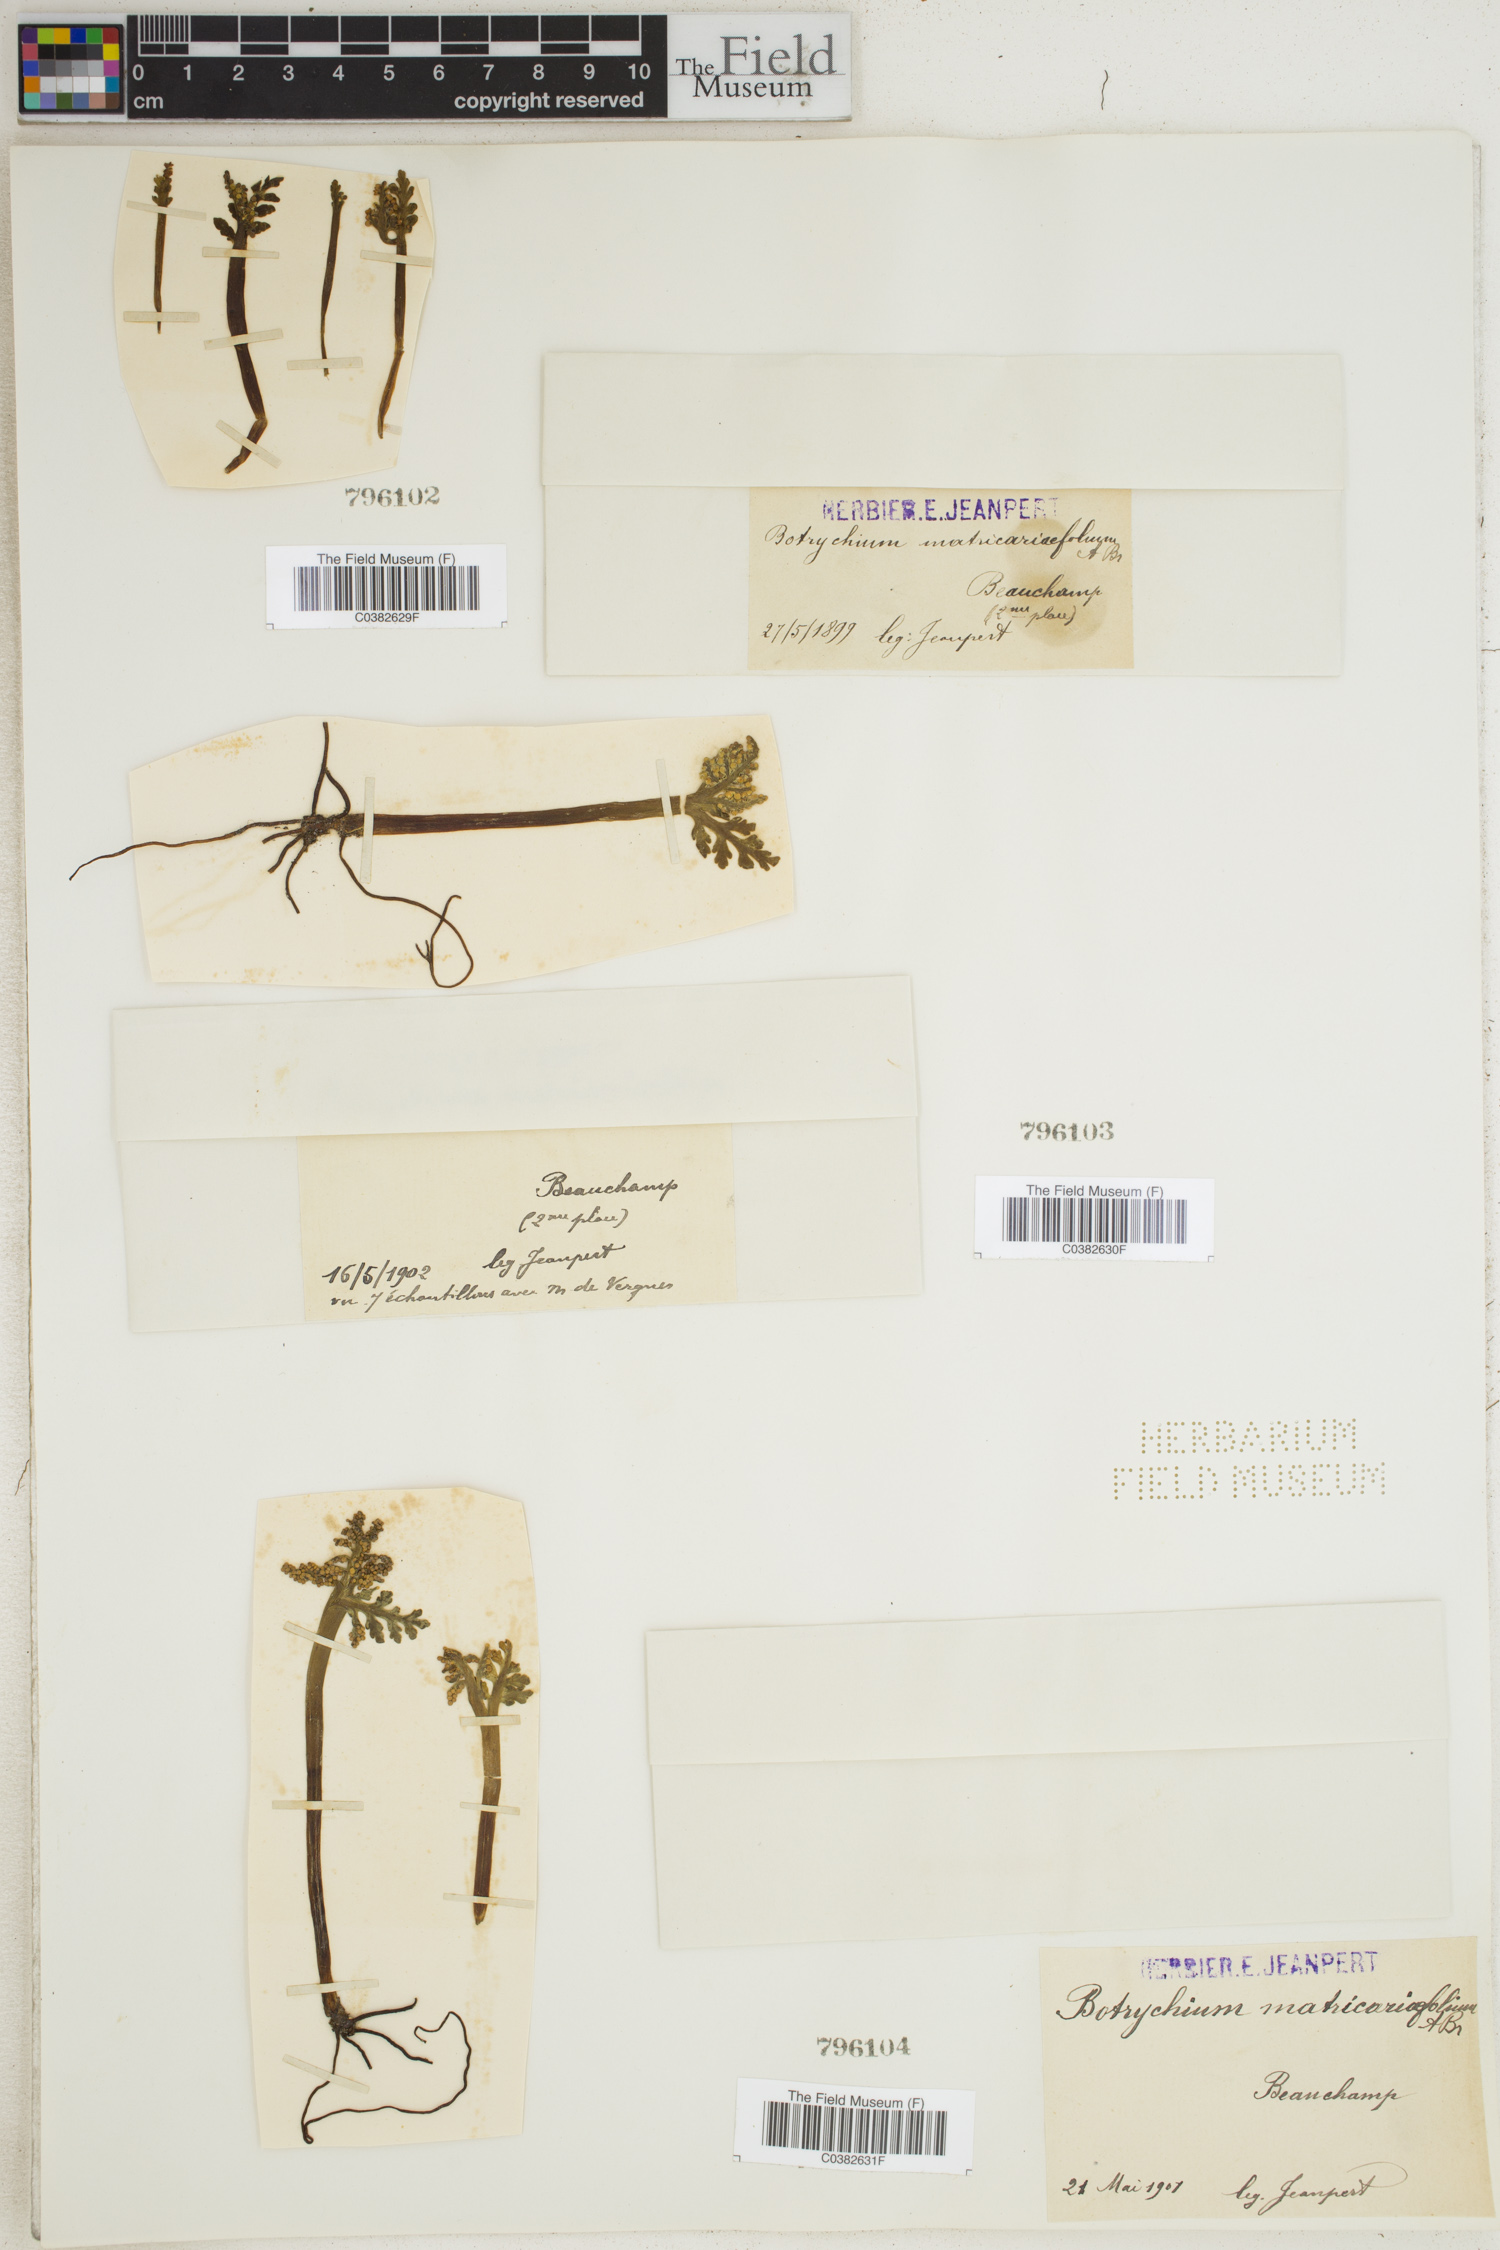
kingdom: Plantae
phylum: Tracheophyta
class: Polypodiopsida
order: Ophioglossales
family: Ophioglossaceae
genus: Botrychium
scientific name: Botrychium matricariifolium
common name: Branched moonwort
